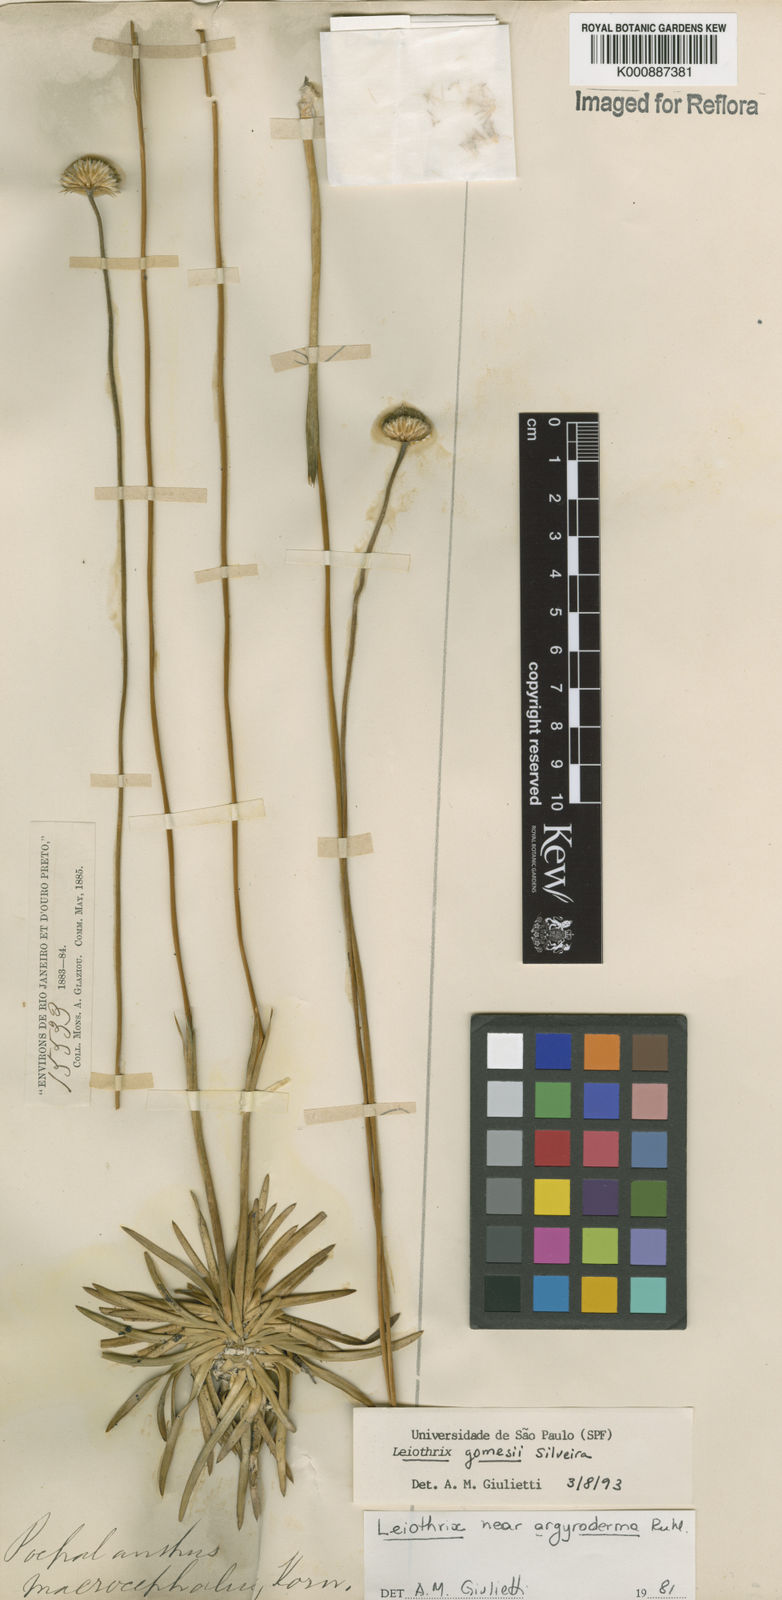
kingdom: Plantae
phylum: Tracheophyta
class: Liliopsida
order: Poales
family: Eriocaulaceae
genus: Leiothrix
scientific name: Leiothrix gomesii
